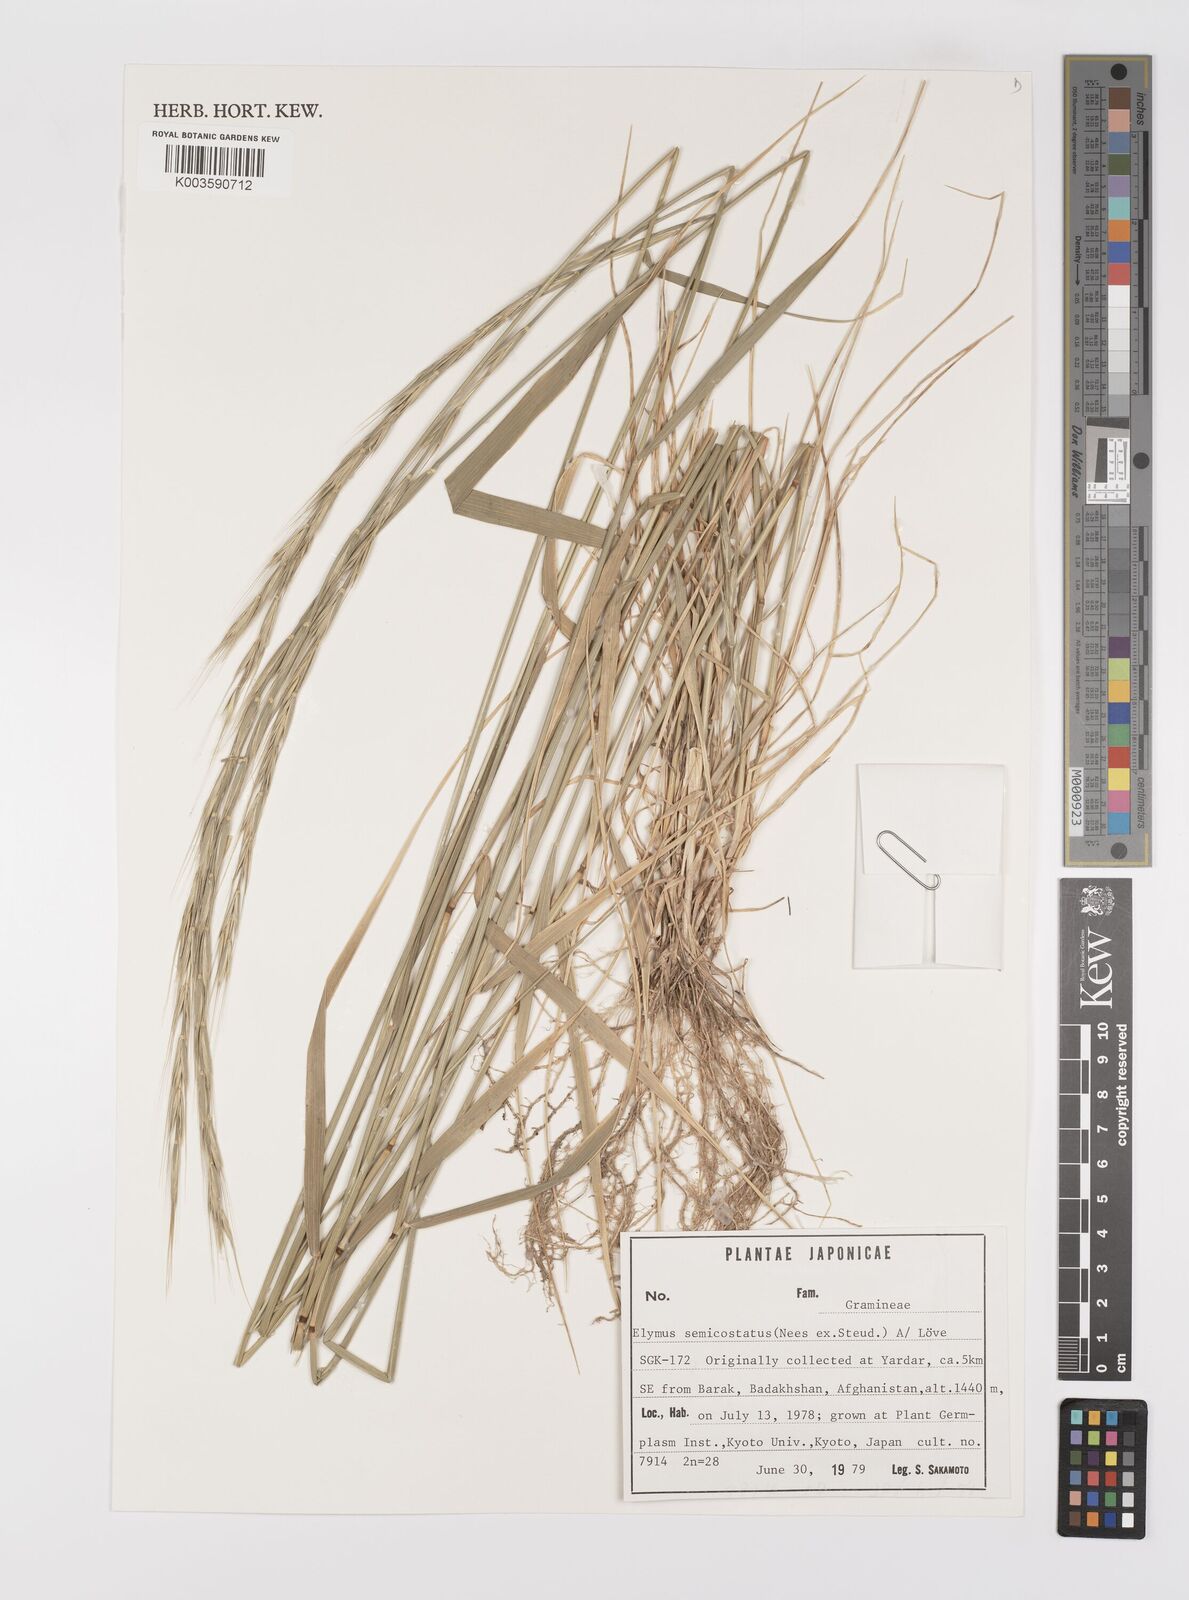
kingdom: Plantae
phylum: Tracheophyta
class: Liliopsida
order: Poales
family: Poaceae
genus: Elymus
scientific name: Elymus semicostatus
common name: Drooping wildrye
